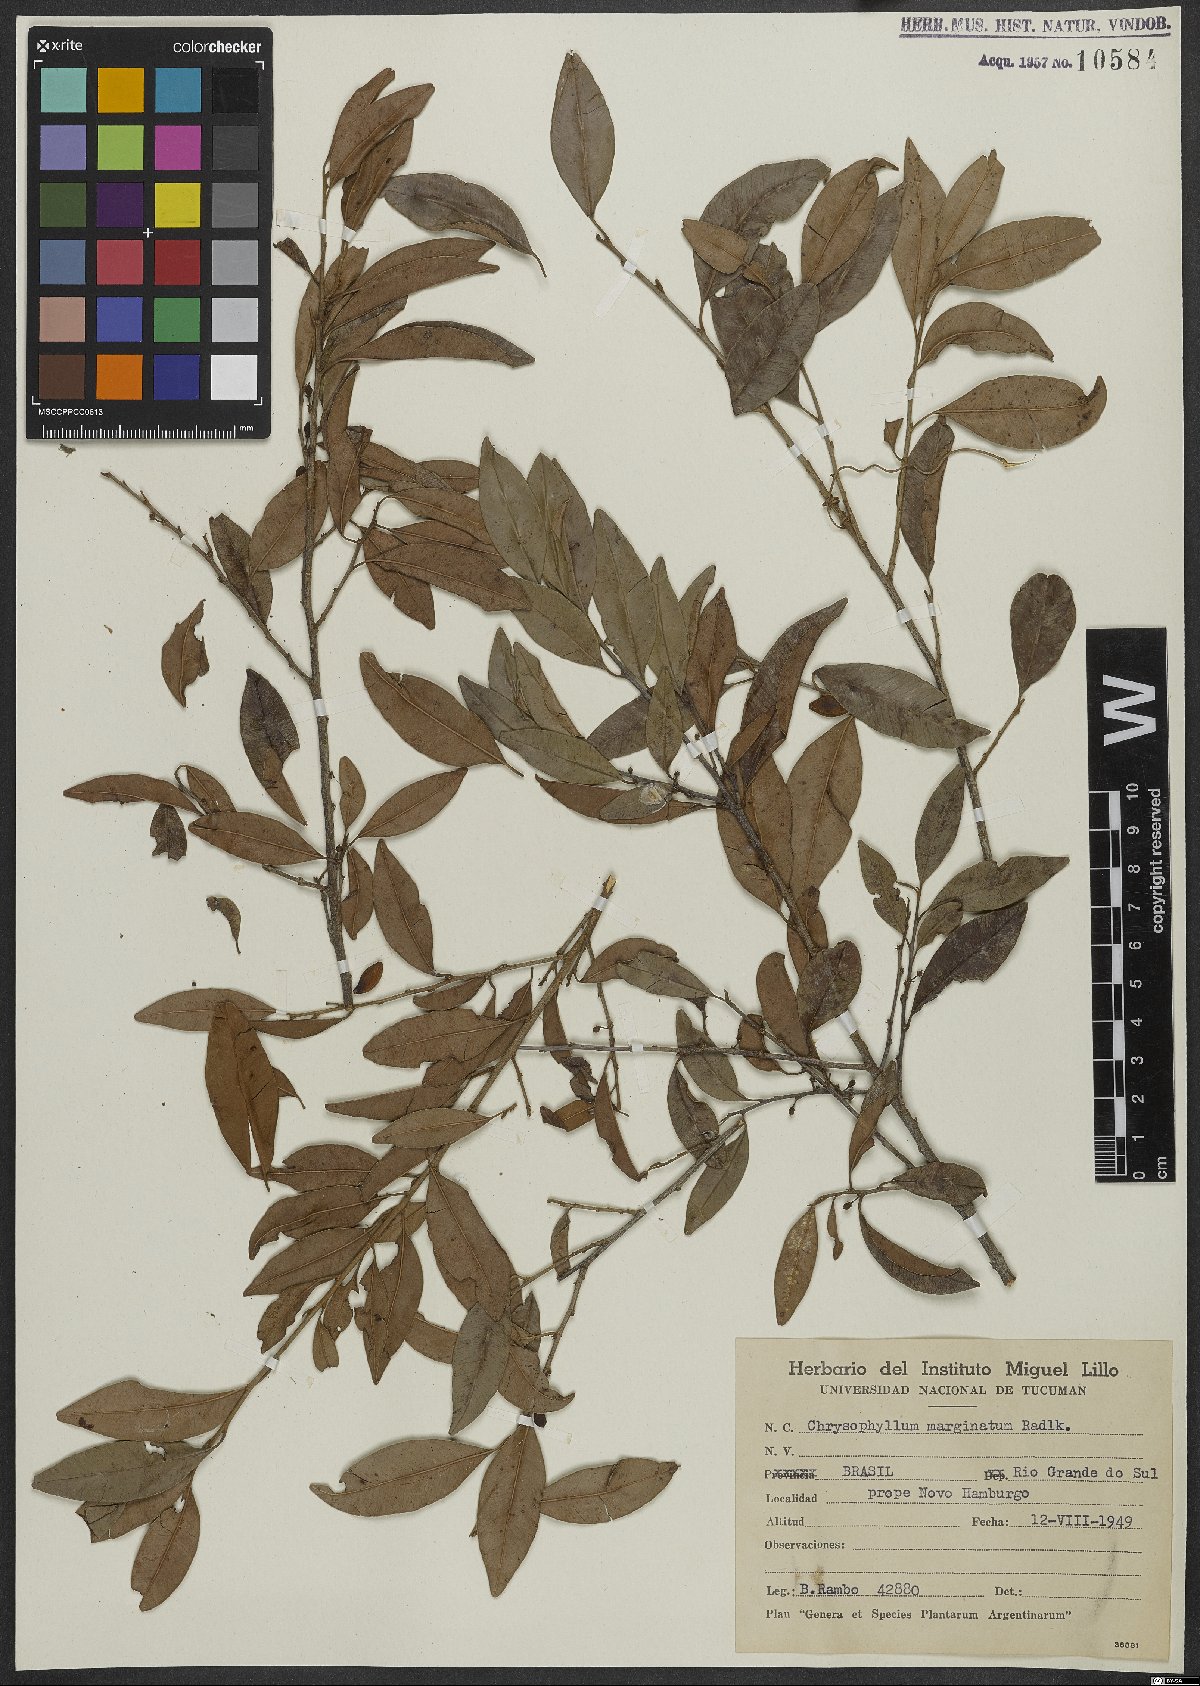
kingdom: Plantae
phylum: Tracheophyta
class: Magnoliopsida
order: Ericales
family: Sapotaceae
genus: Chrysophyllum
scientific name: Chrysophyllum marginatum
